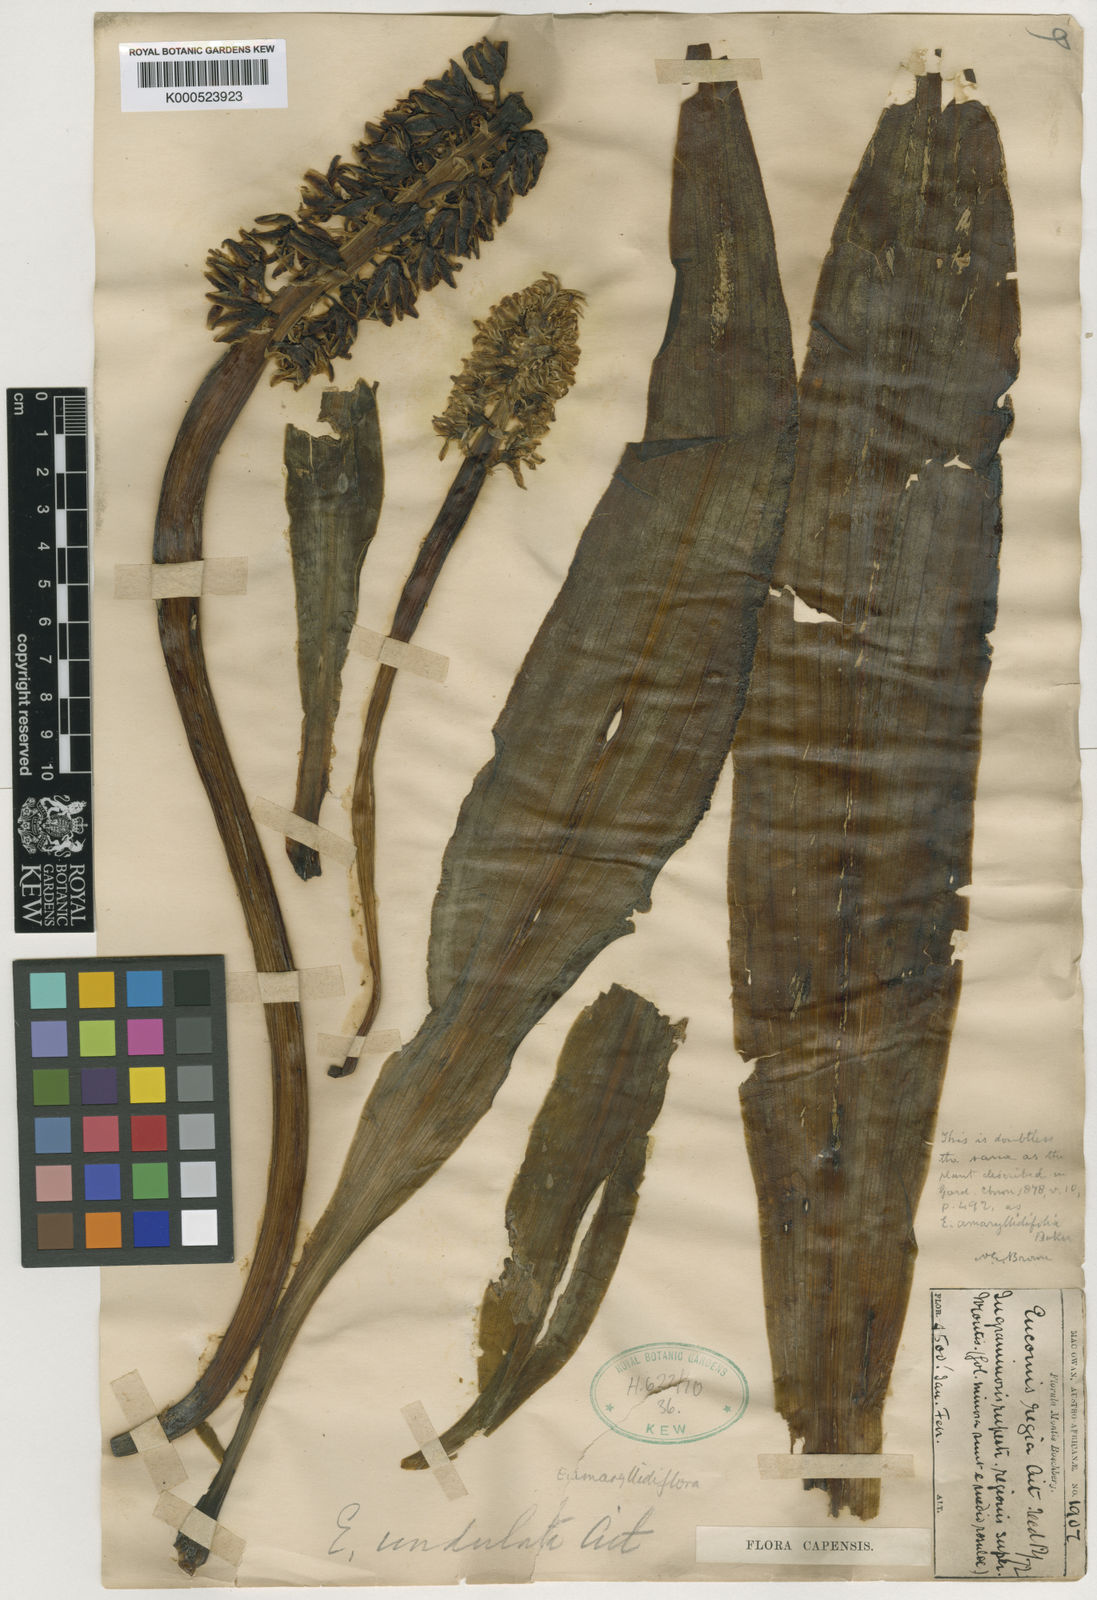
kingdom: Plantae
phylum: Tracheophyta
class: Liliopsida
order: Asparagales
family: Asparagaceae
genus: Eucomis
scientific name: Eucomis amaryllidifolia
